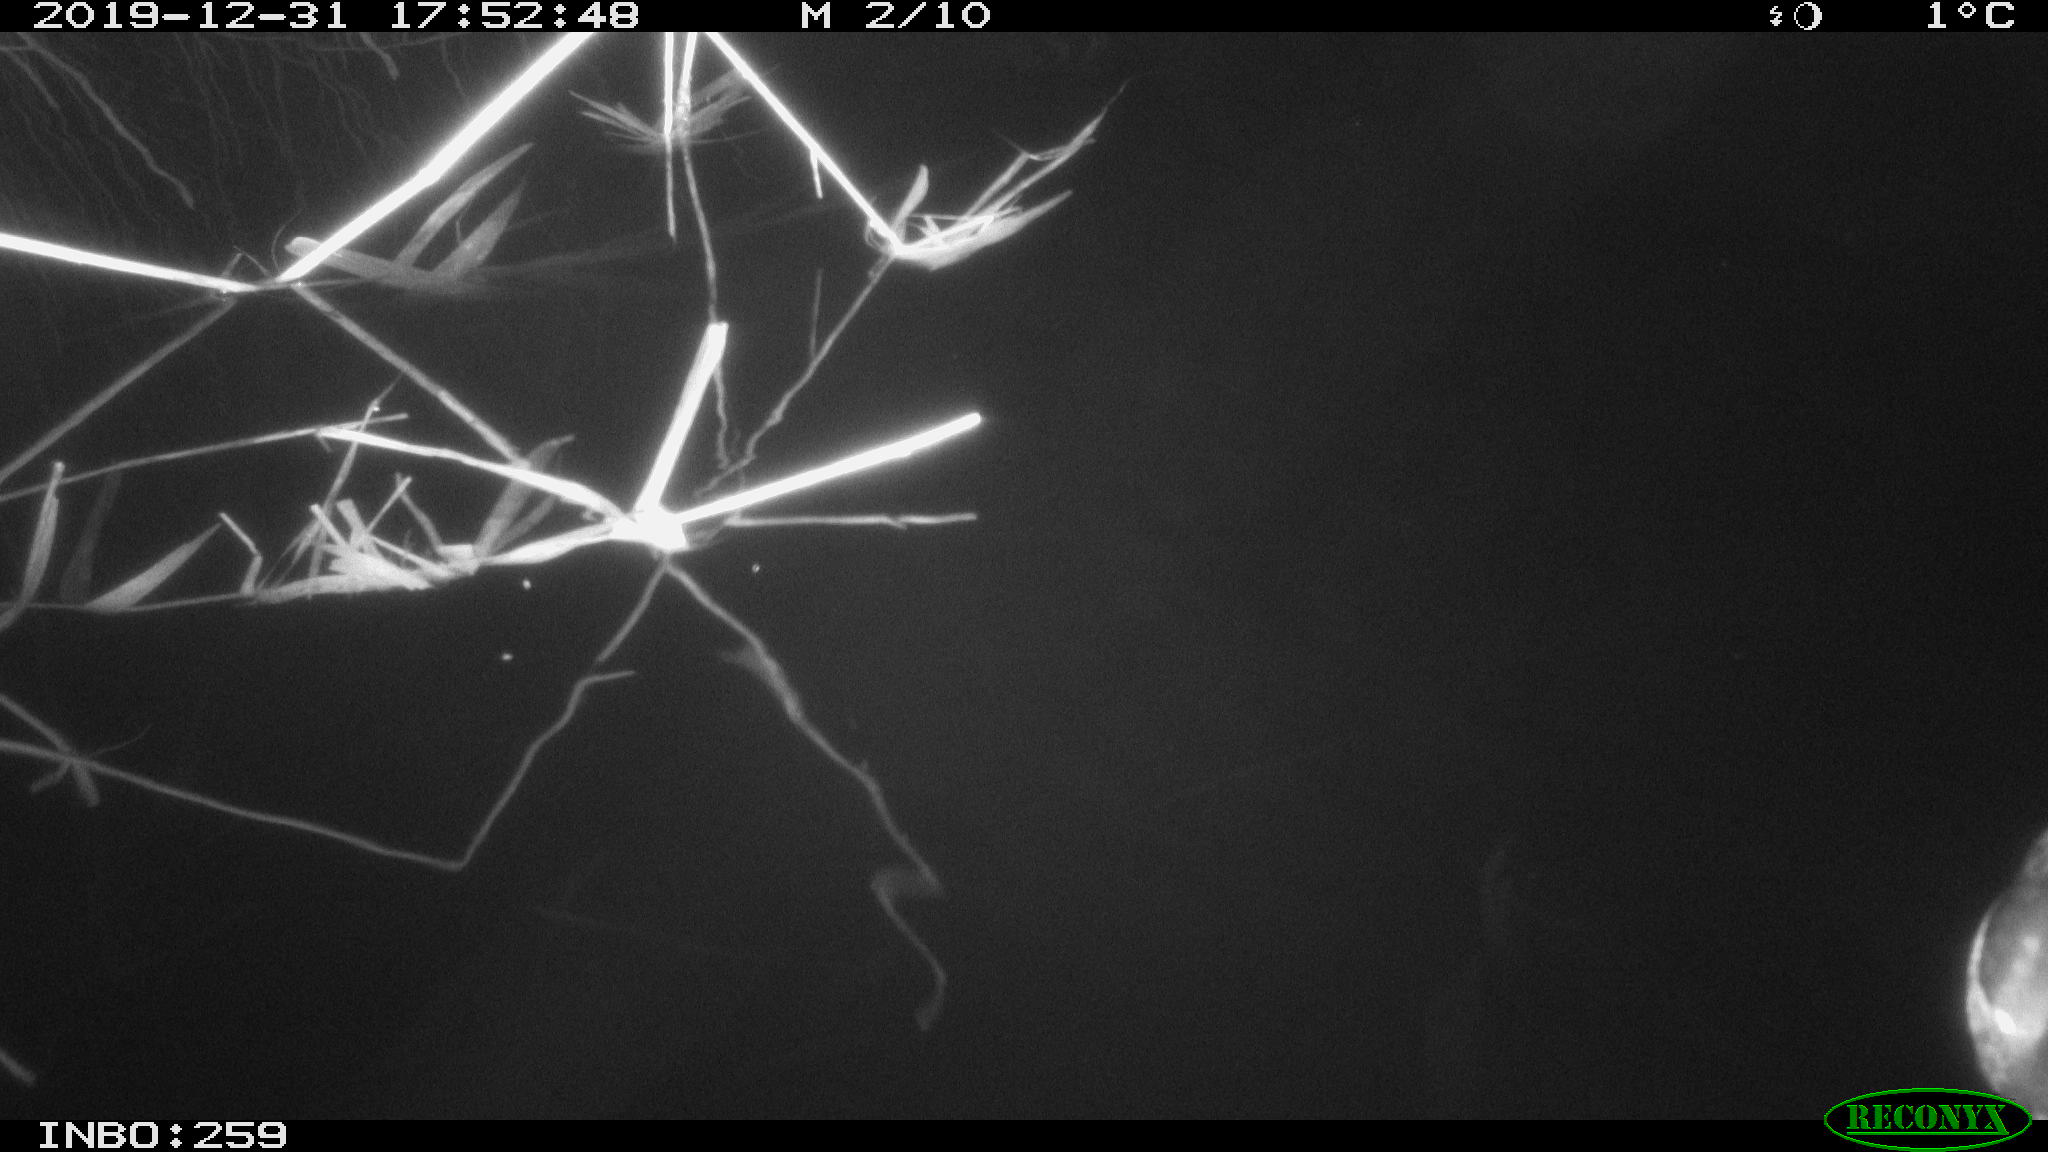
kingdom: Animalia
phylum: Chordata
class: Aves
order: Anseriformes
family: Anatidae
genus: Anas
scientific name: Anas platyrhynchos
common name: Mallard
